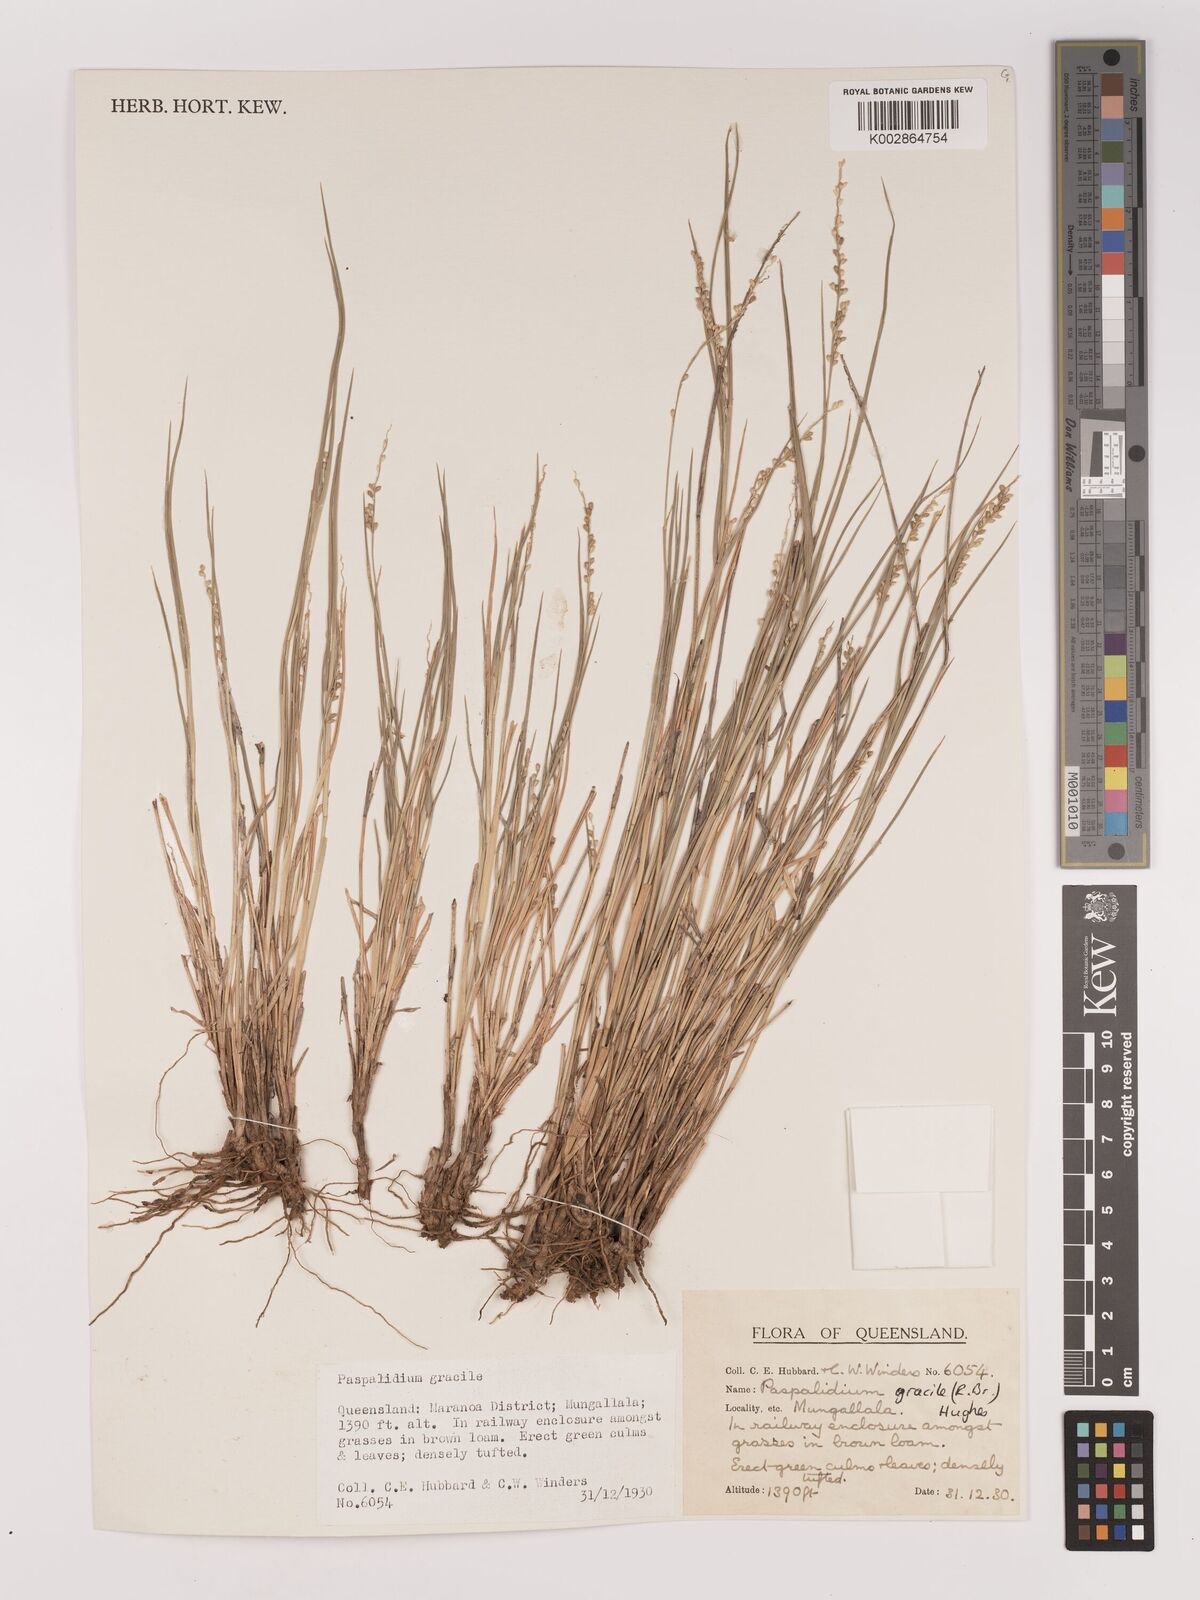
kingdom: Plantae
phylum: Tracheophyta
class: Liliopsida
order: Poales
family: Poaceae
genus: Setaria
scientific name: Setaria brownii
